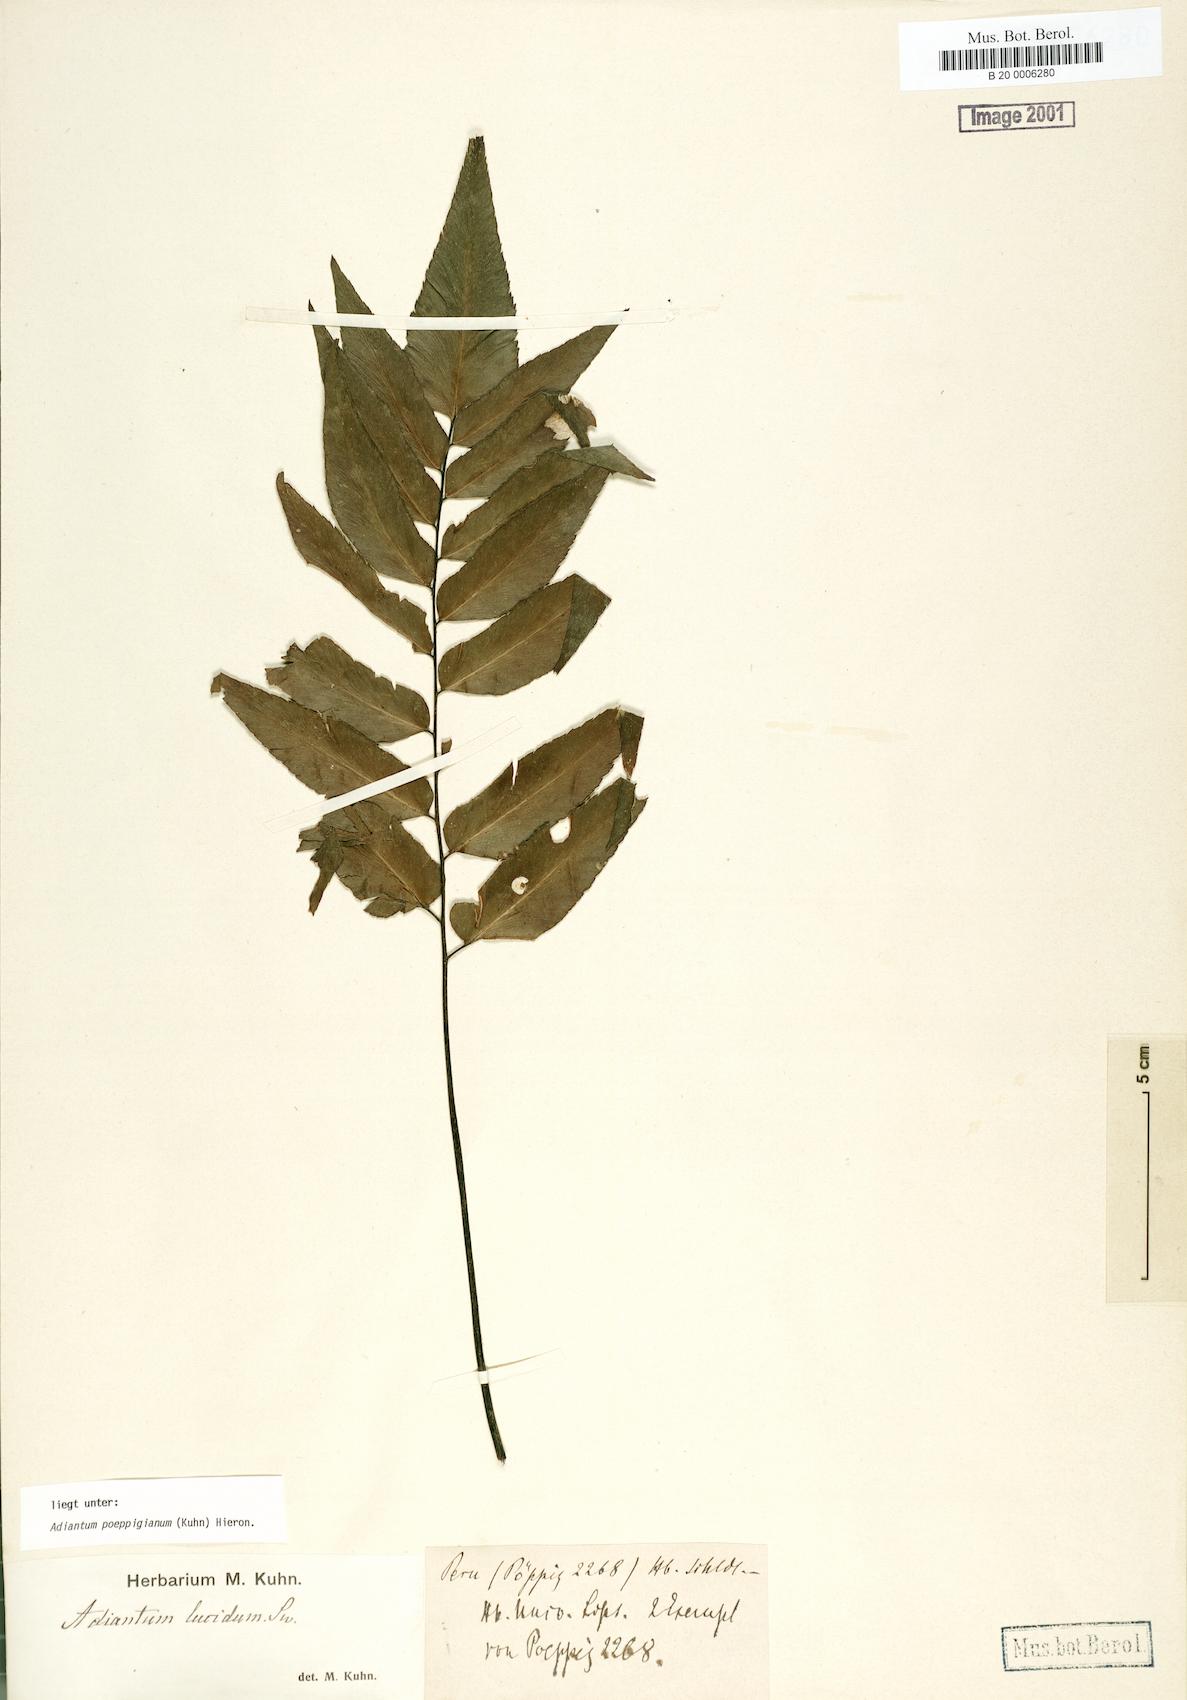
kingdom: Plantae
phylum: Tracheophyta
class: Polypodiopsida
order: Polypodiales
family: Pteridaceae
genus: Adiantum
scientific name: Adiantum poeppigianum
